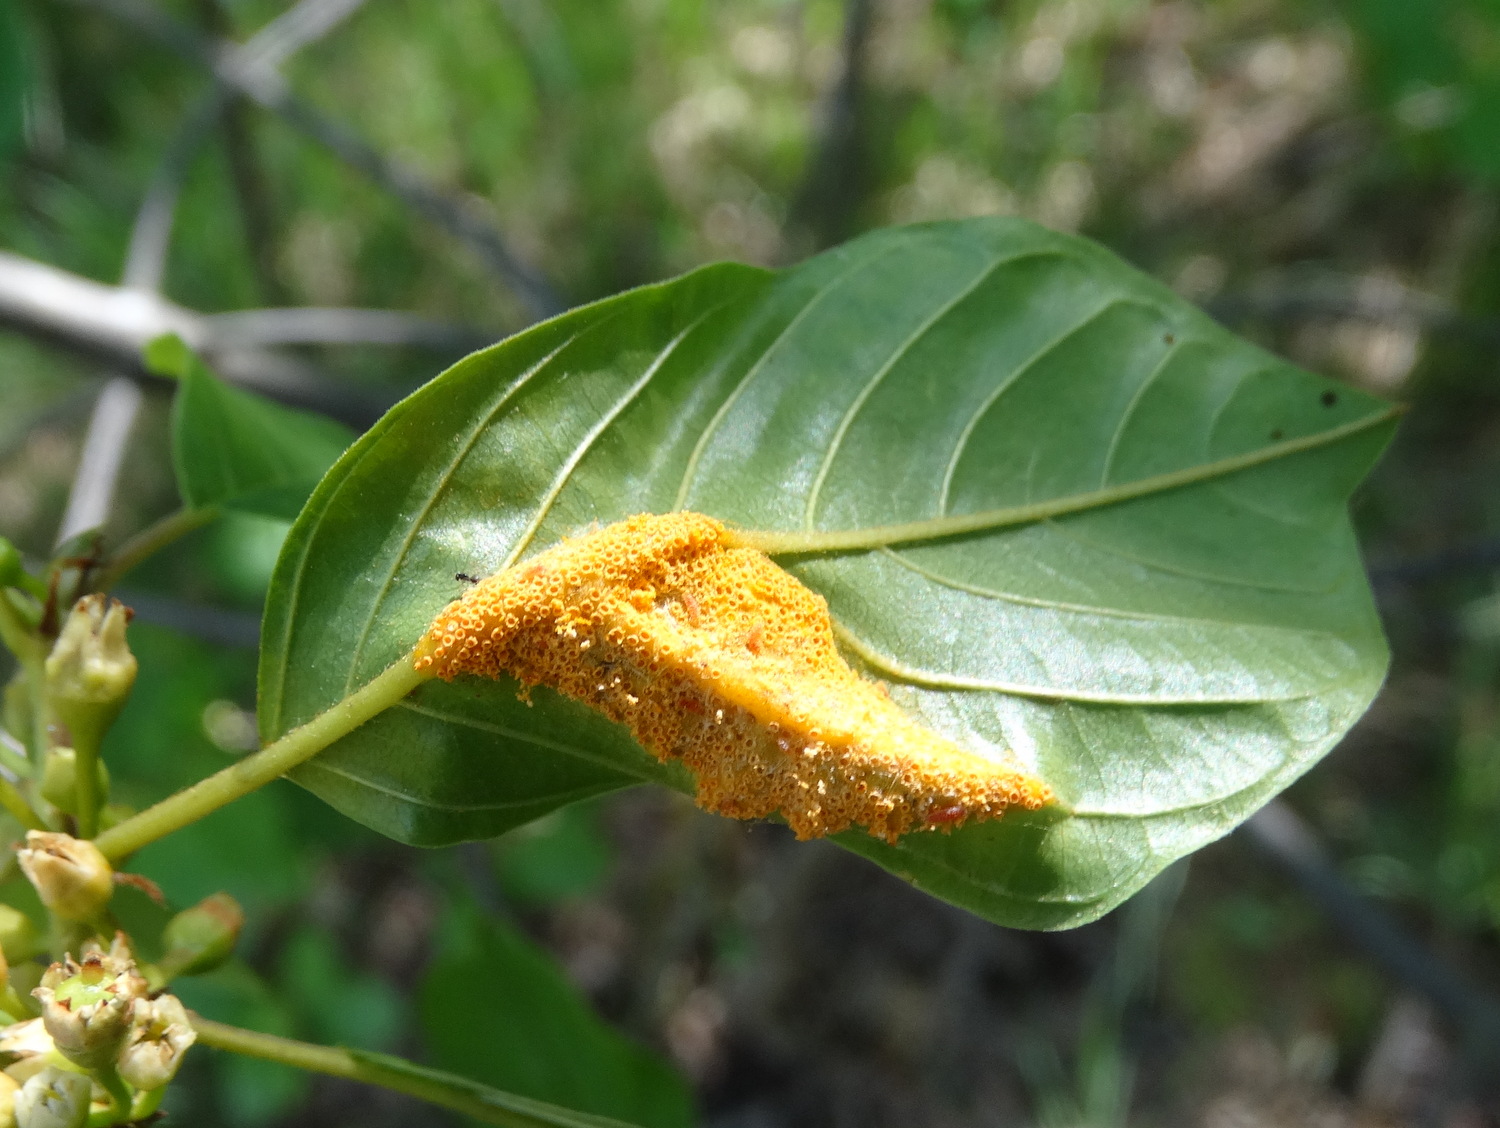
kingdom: Fungi
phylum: Basidiomycota
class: Pucciniomycetes
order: Pucciniales
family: Pucciniaceae
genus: Puccinia
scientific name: Puccinia coronata
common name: Crown rust
